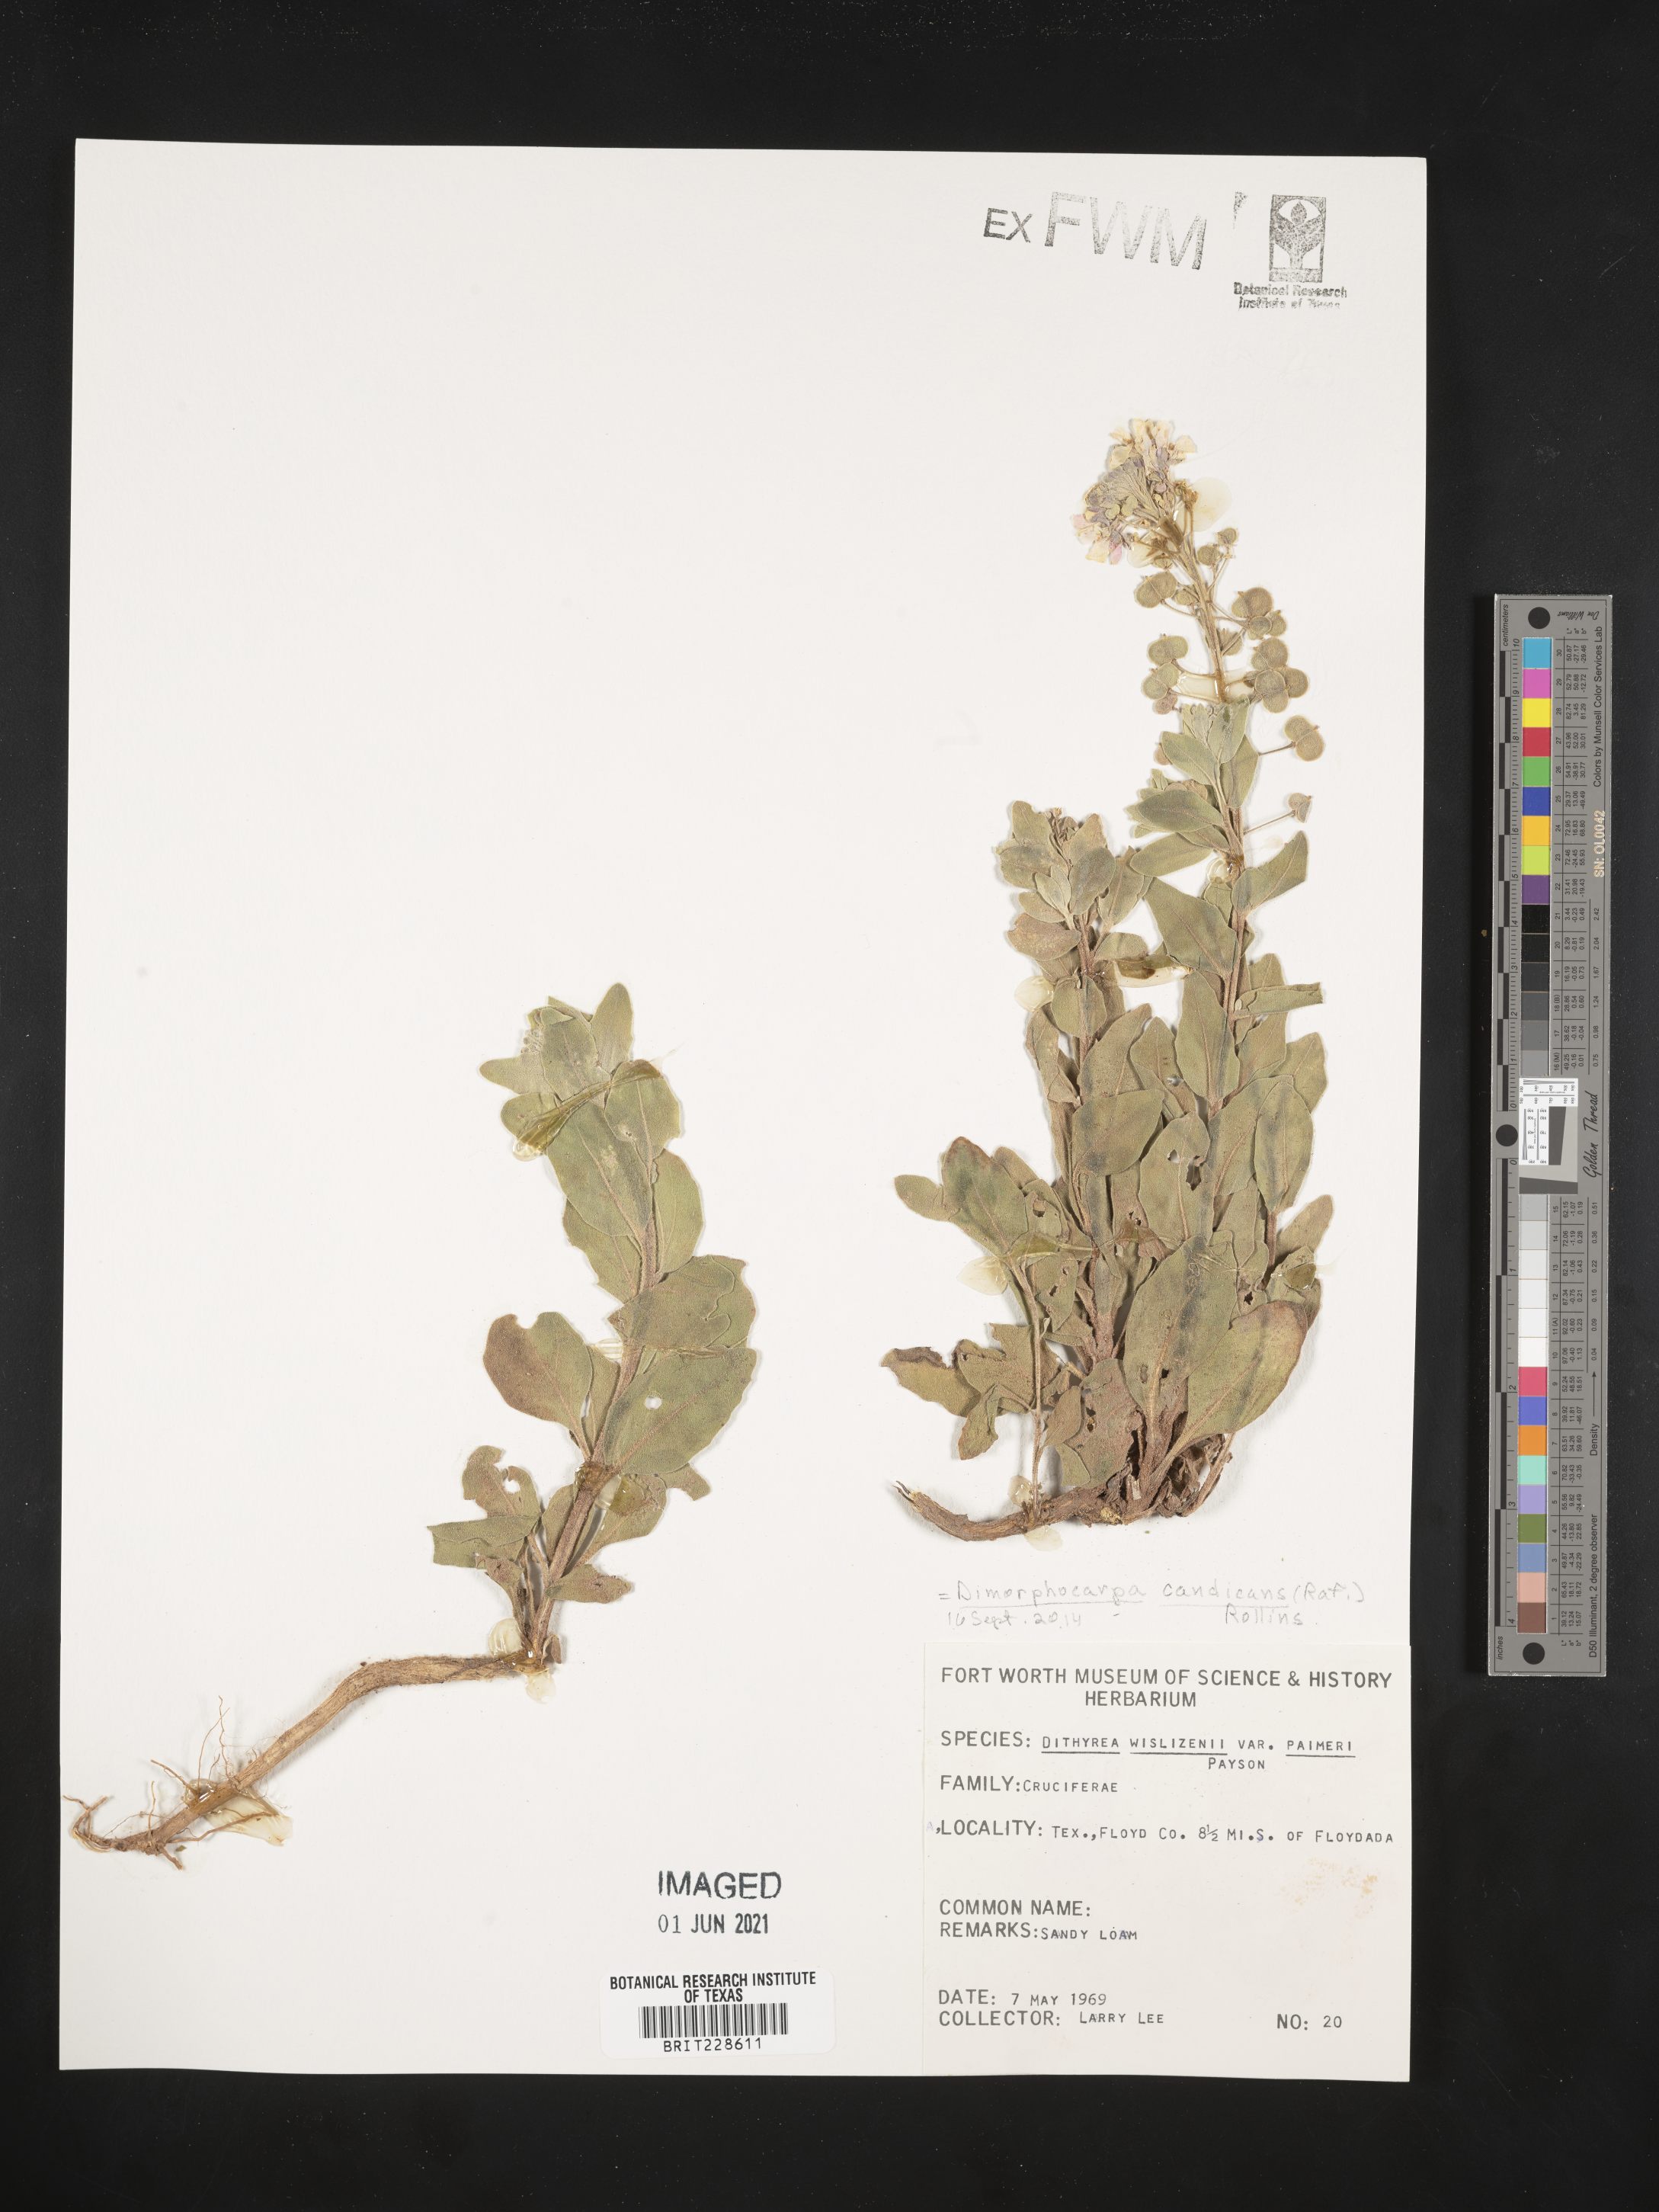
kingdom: Plantae
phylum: Tracheophyta
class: Magnoliopsida
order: Brassicales
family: Brassicaceae
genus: Dimorphocarpa
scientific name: Dimorphocarpa candicans
